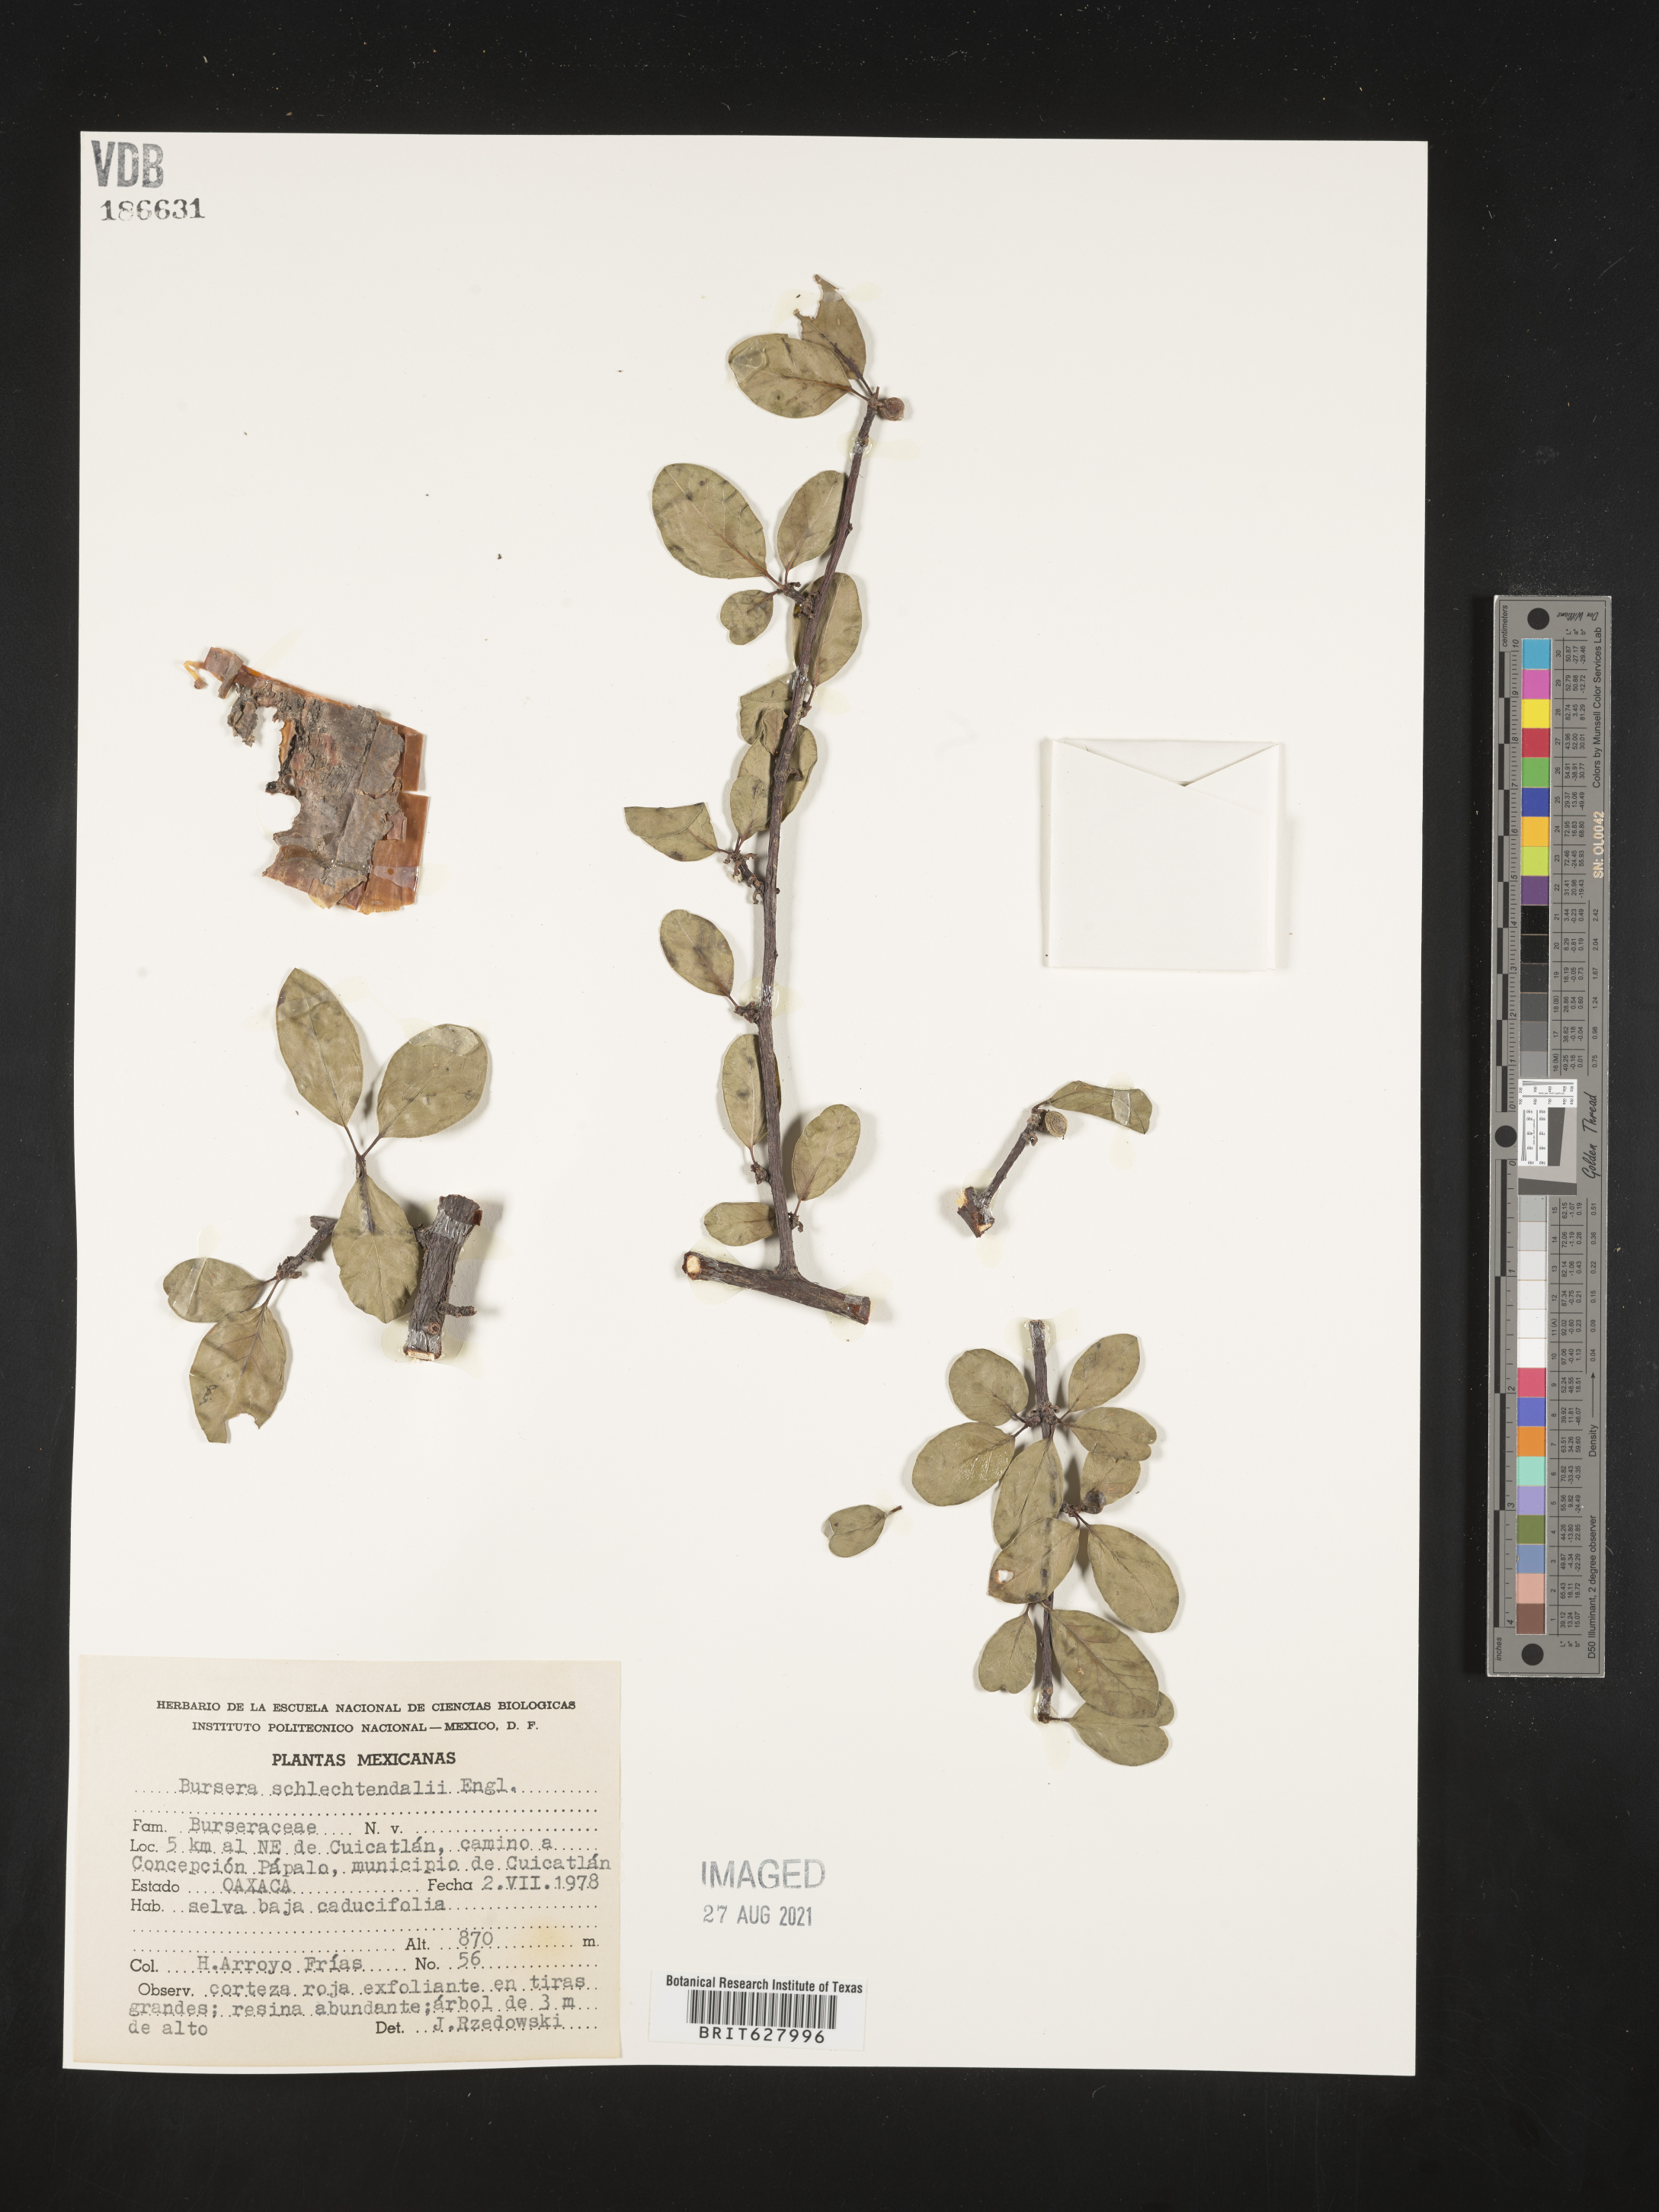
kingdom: Plantae
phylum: Tracheophyta
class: Magnoliopsida
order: Sapindales
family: Burseraceae
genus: Bursera
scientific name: Bursera
